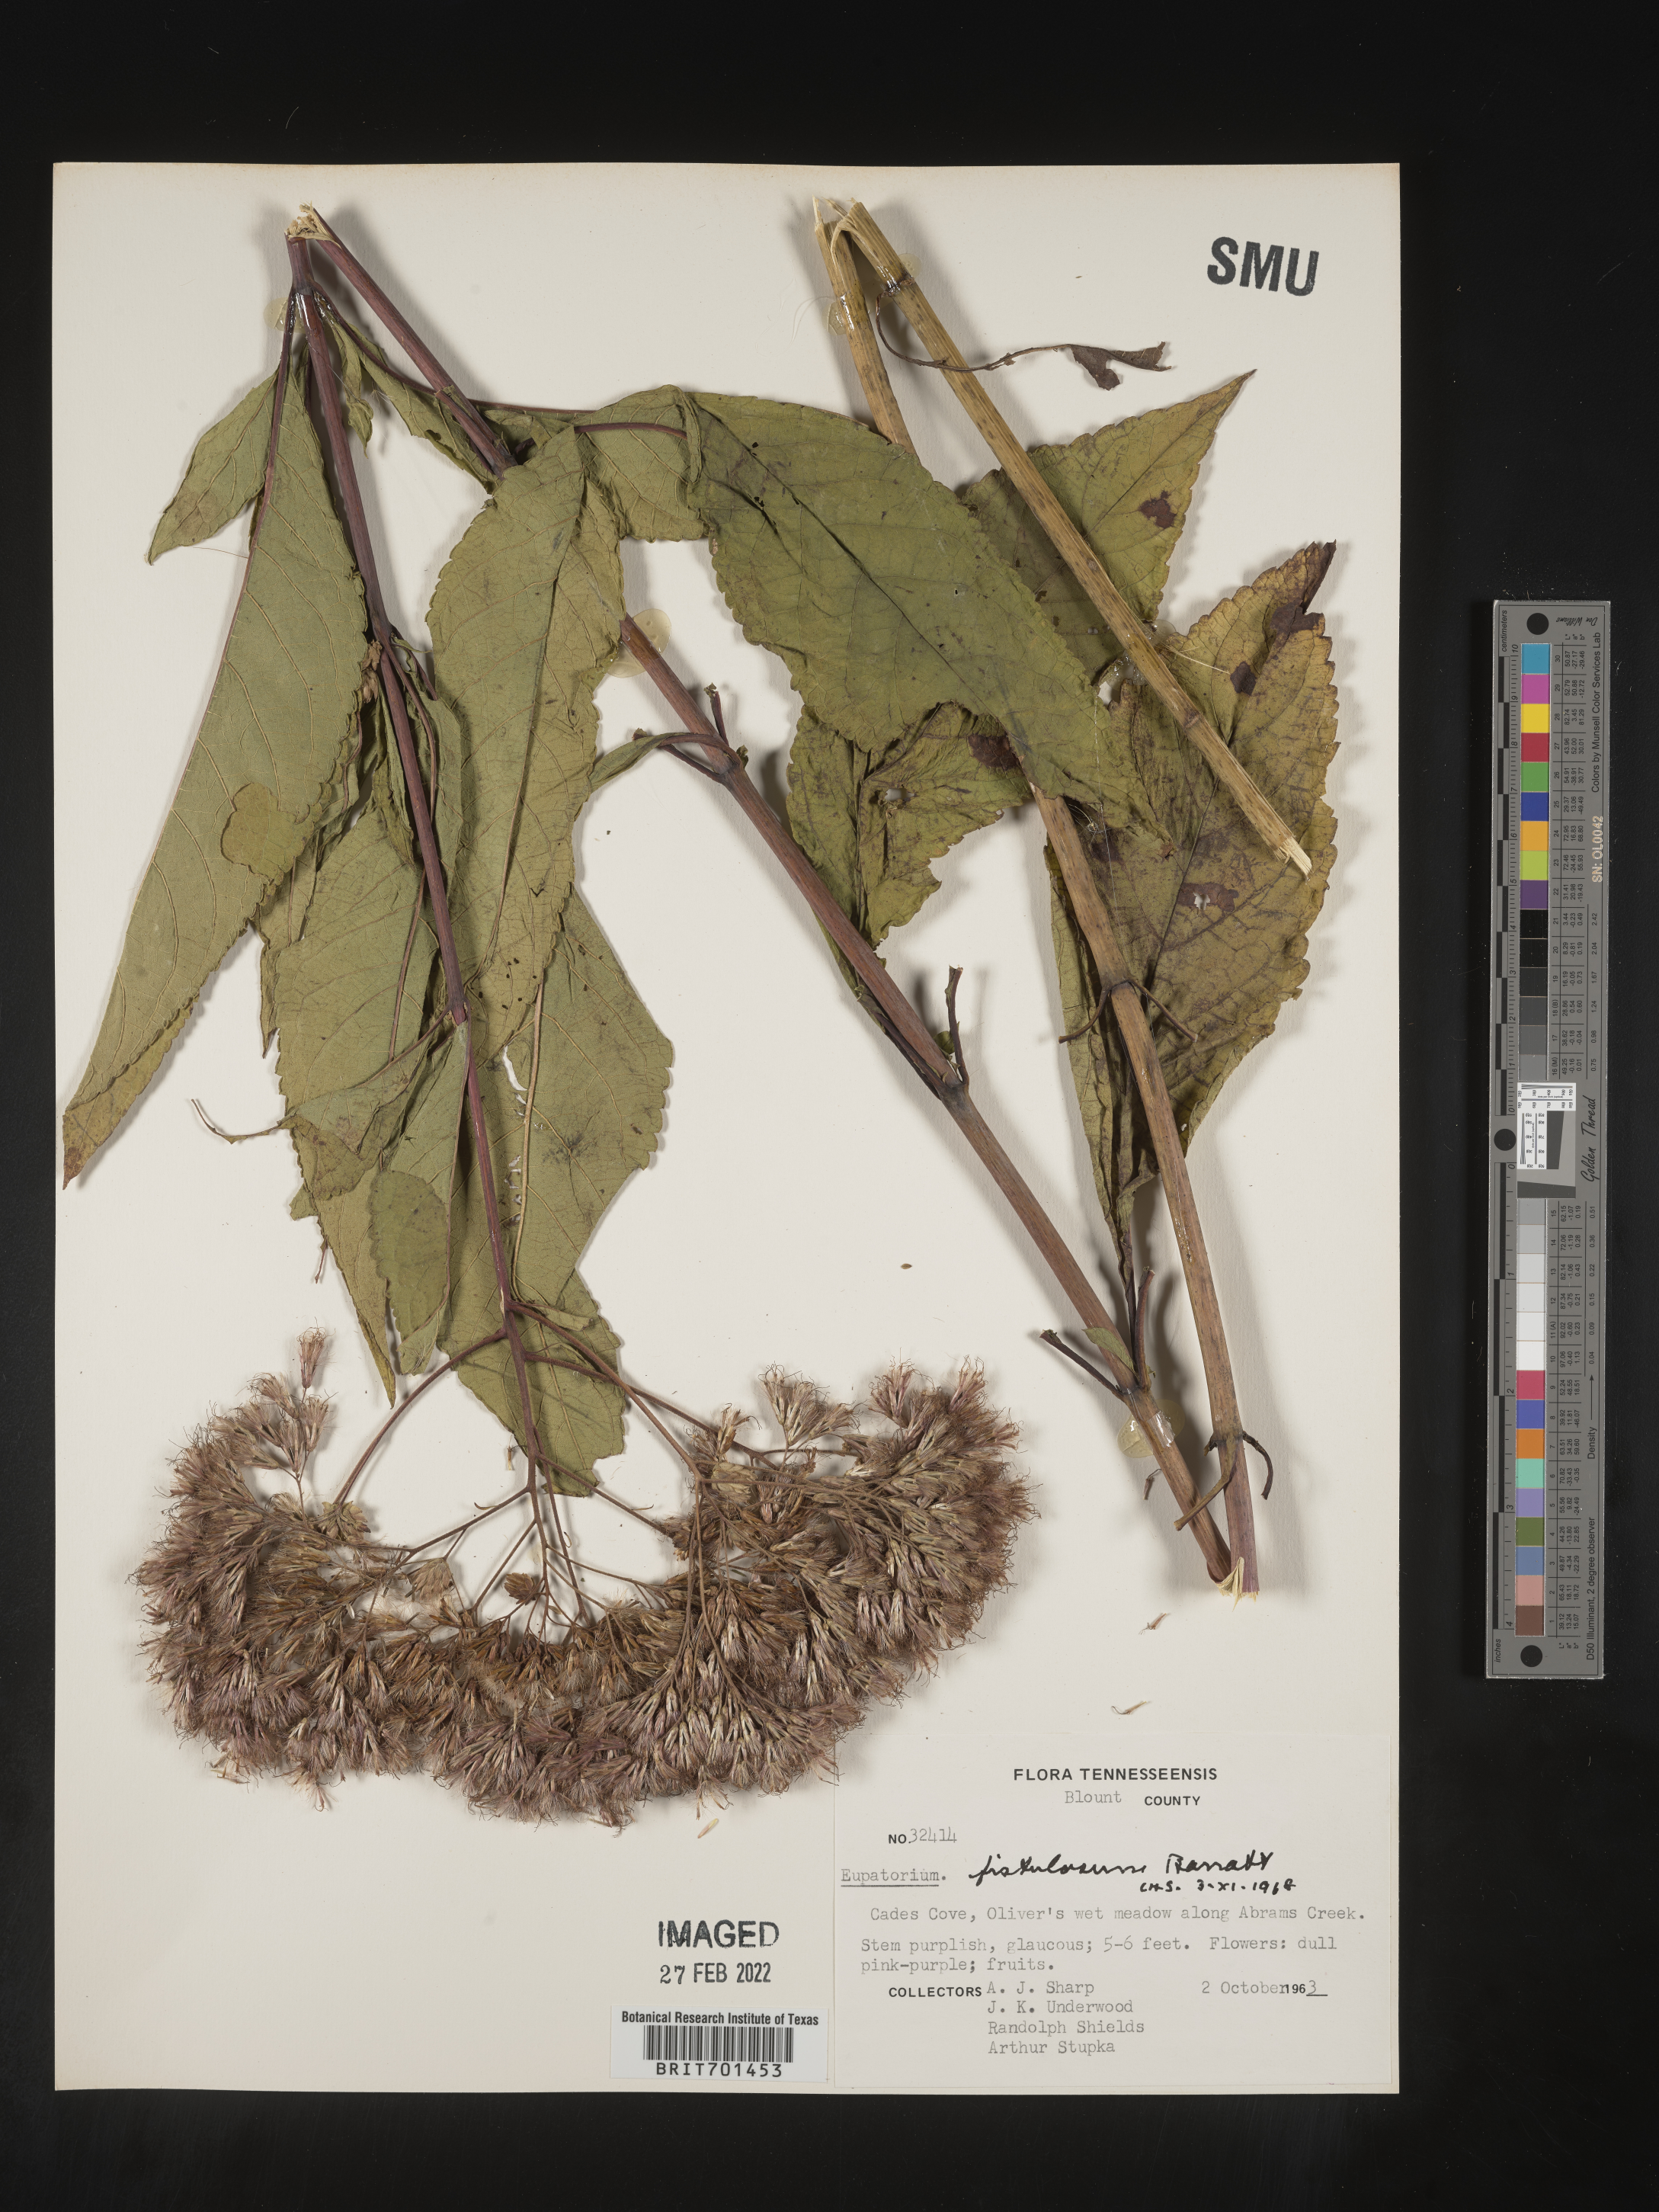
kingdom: Plantae
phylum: Tracheophyta
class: Magnoliopsida
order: Asterales
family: Asteraceae
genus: Eutrochium
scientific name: Eutrochium fistulosum
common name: Trumpetweed
